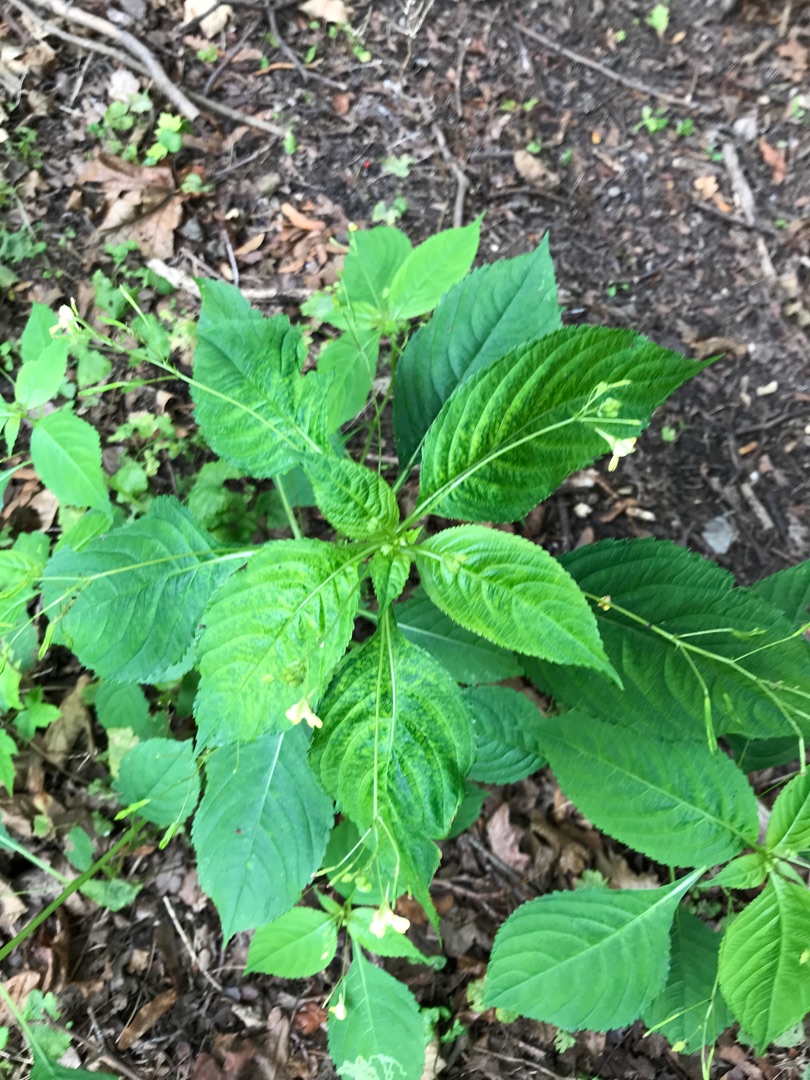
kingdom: Plantae
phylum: Tracheophyta
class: Magnoliopsida
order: Ericales
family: Balsaminaceae
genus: Impatiens
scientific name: Impatiens parviflora
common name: Småblomstret balsamin
